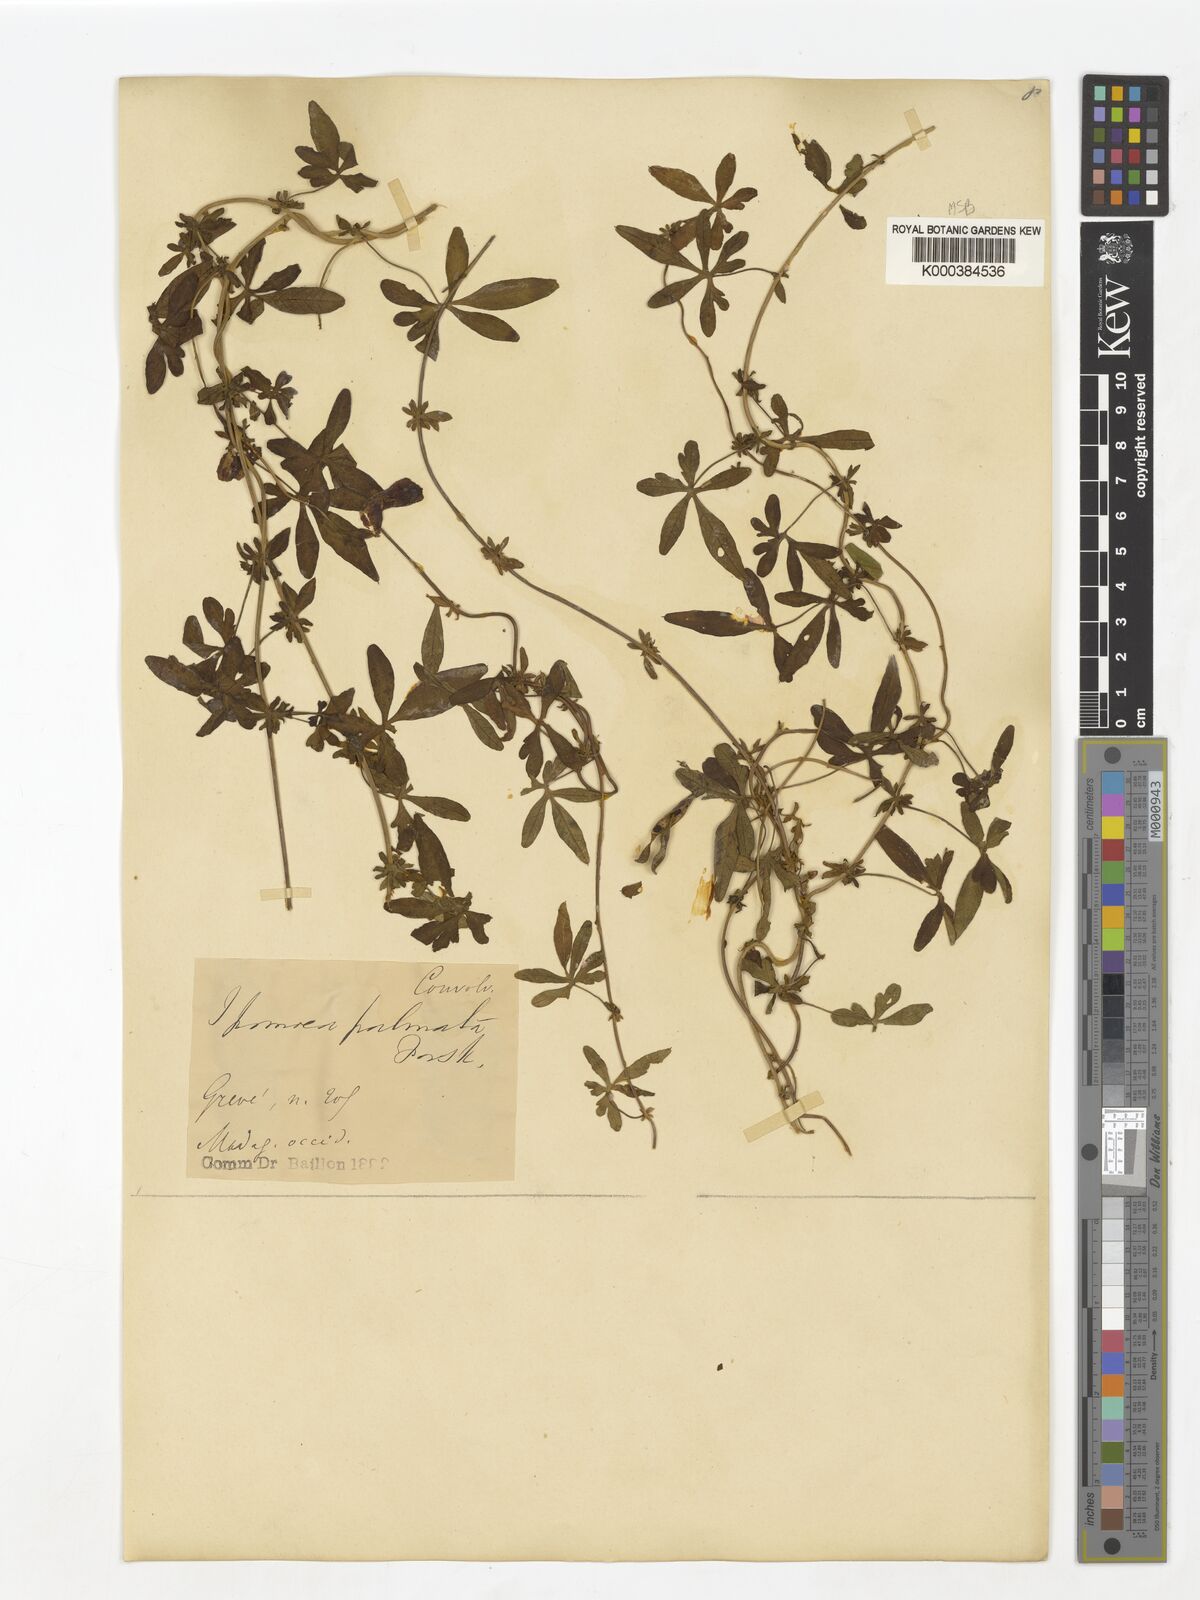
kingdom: Plantae
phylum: Tracheophyta
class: Magnoliopsida
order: Solanales
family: Convolvulaceae
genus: Ipomoea
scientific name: Ipomoea cairica
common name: Mile a minute vine
